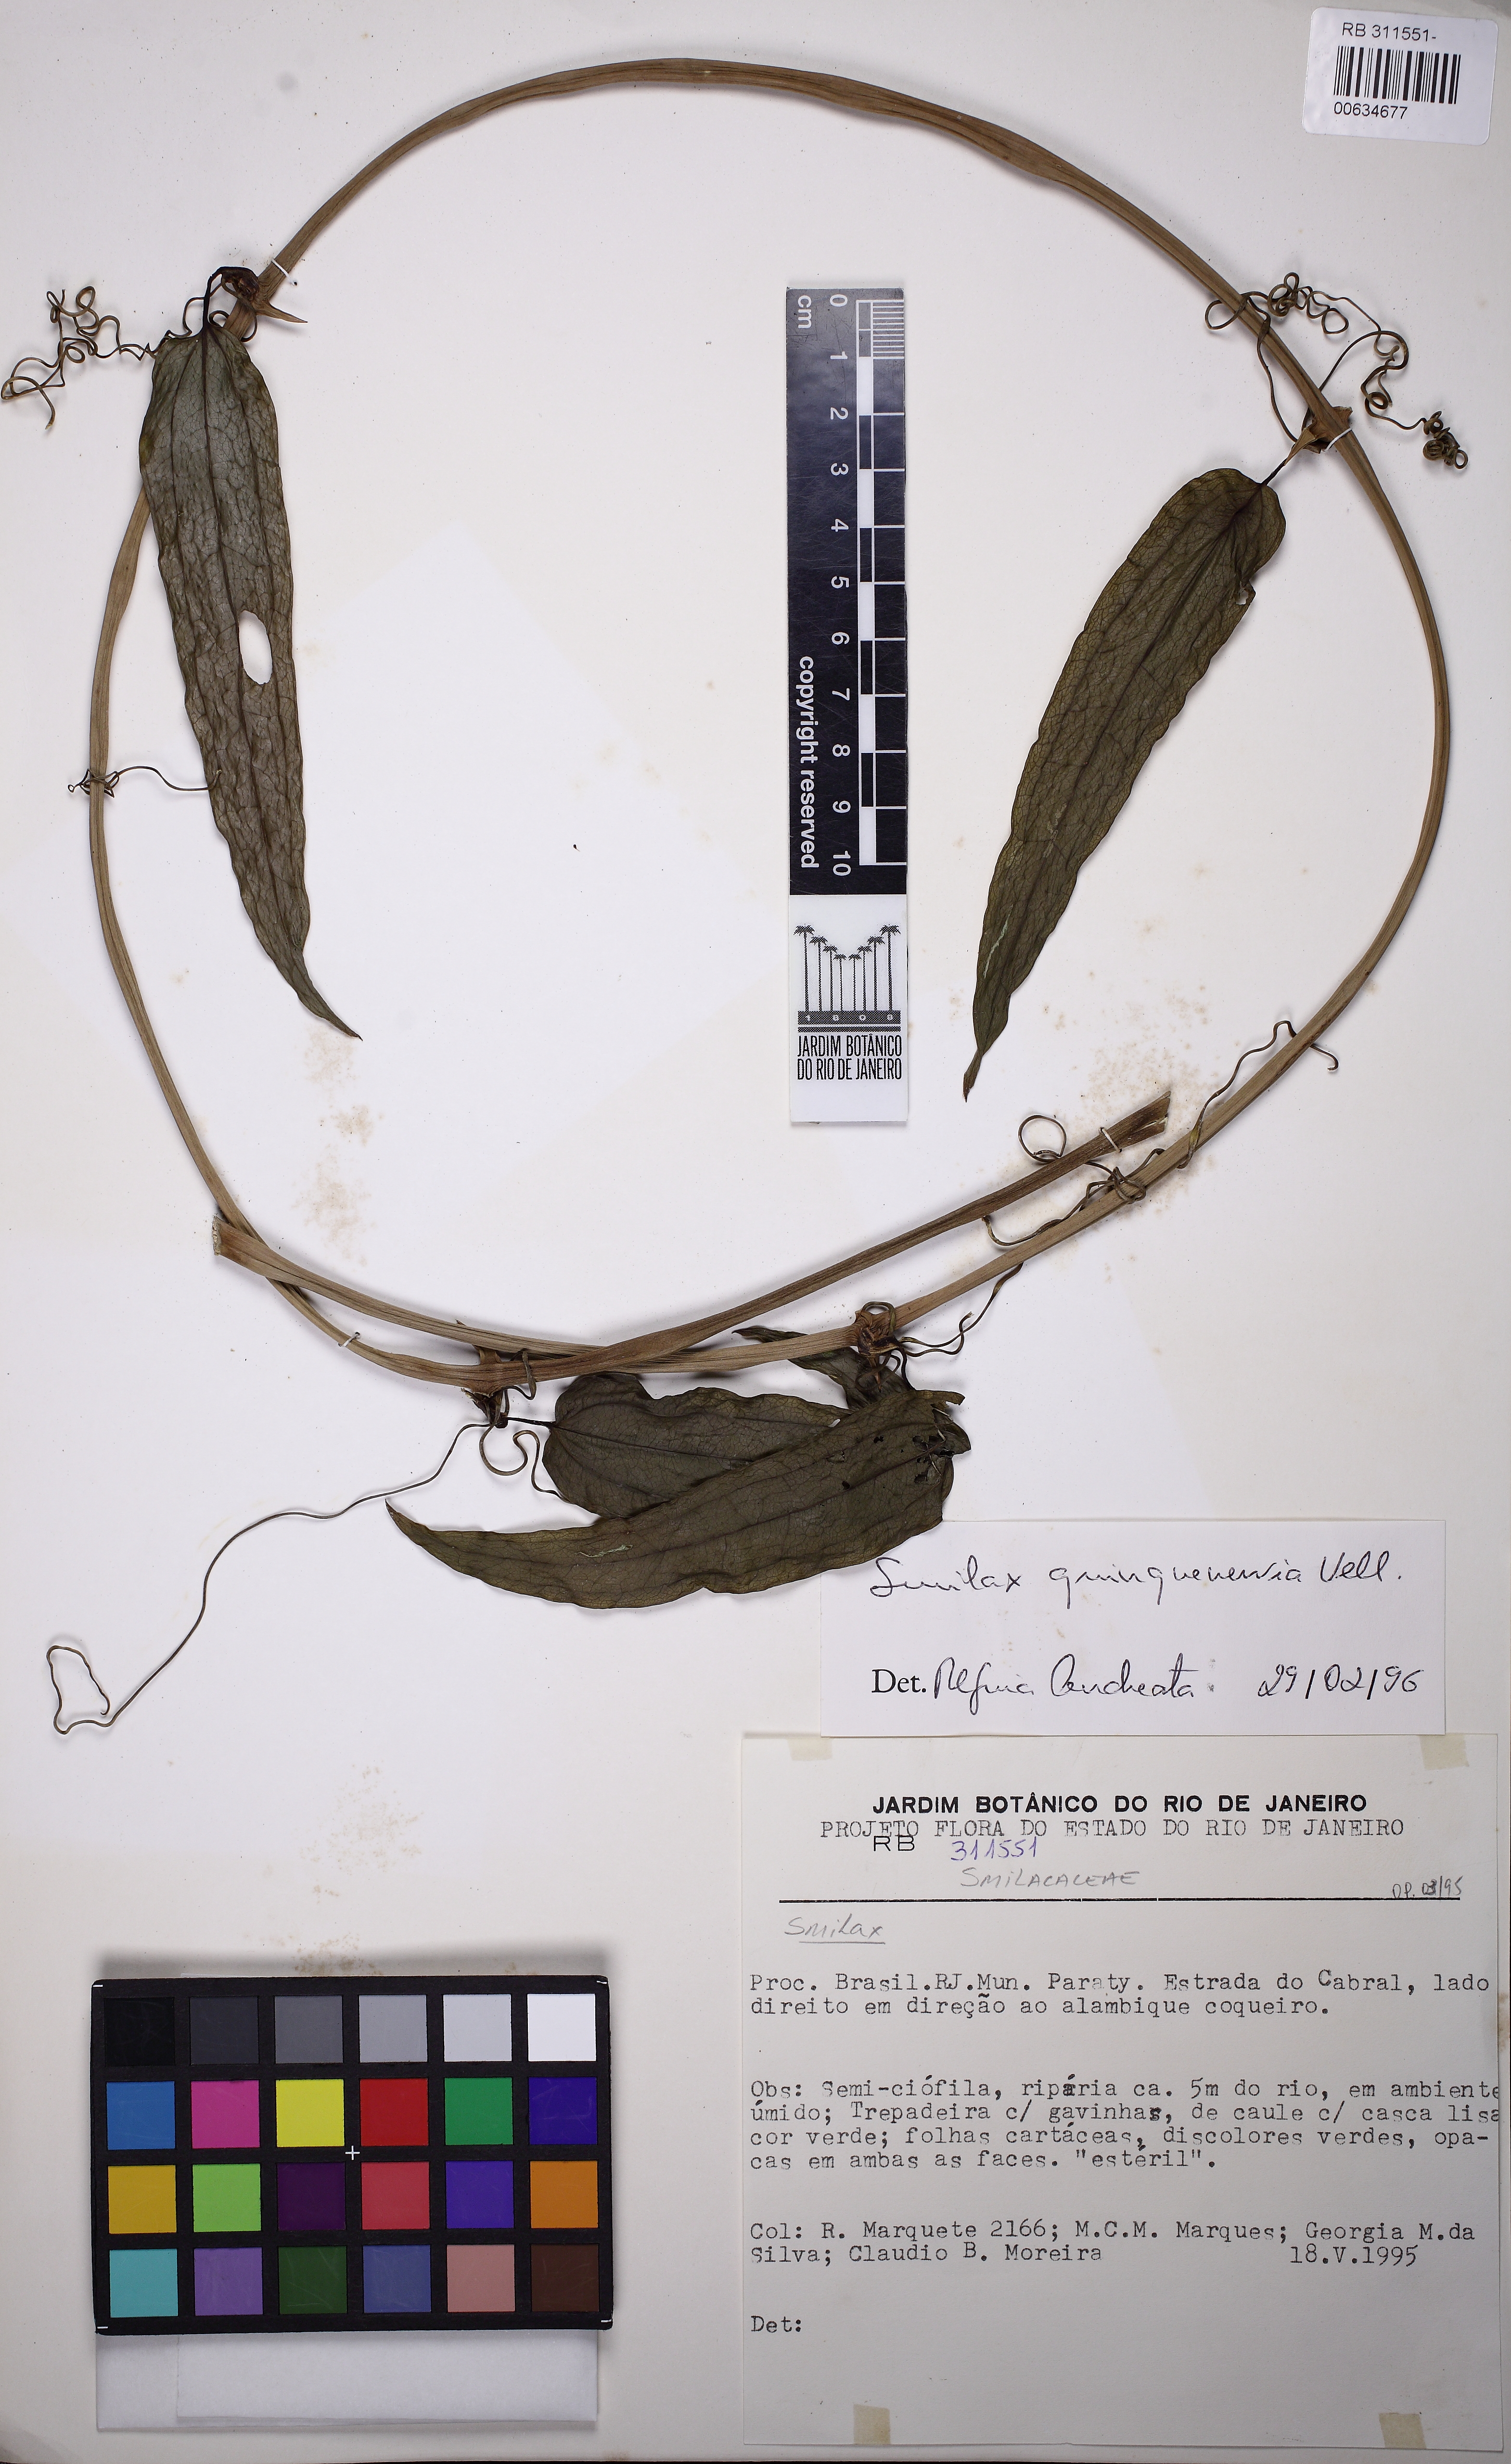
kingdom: Plantae
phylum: Tracheophyta
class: Liliopsida
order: Liliales
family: Smilacaceae
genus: Smilax
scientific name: Smilax quinquenervia
